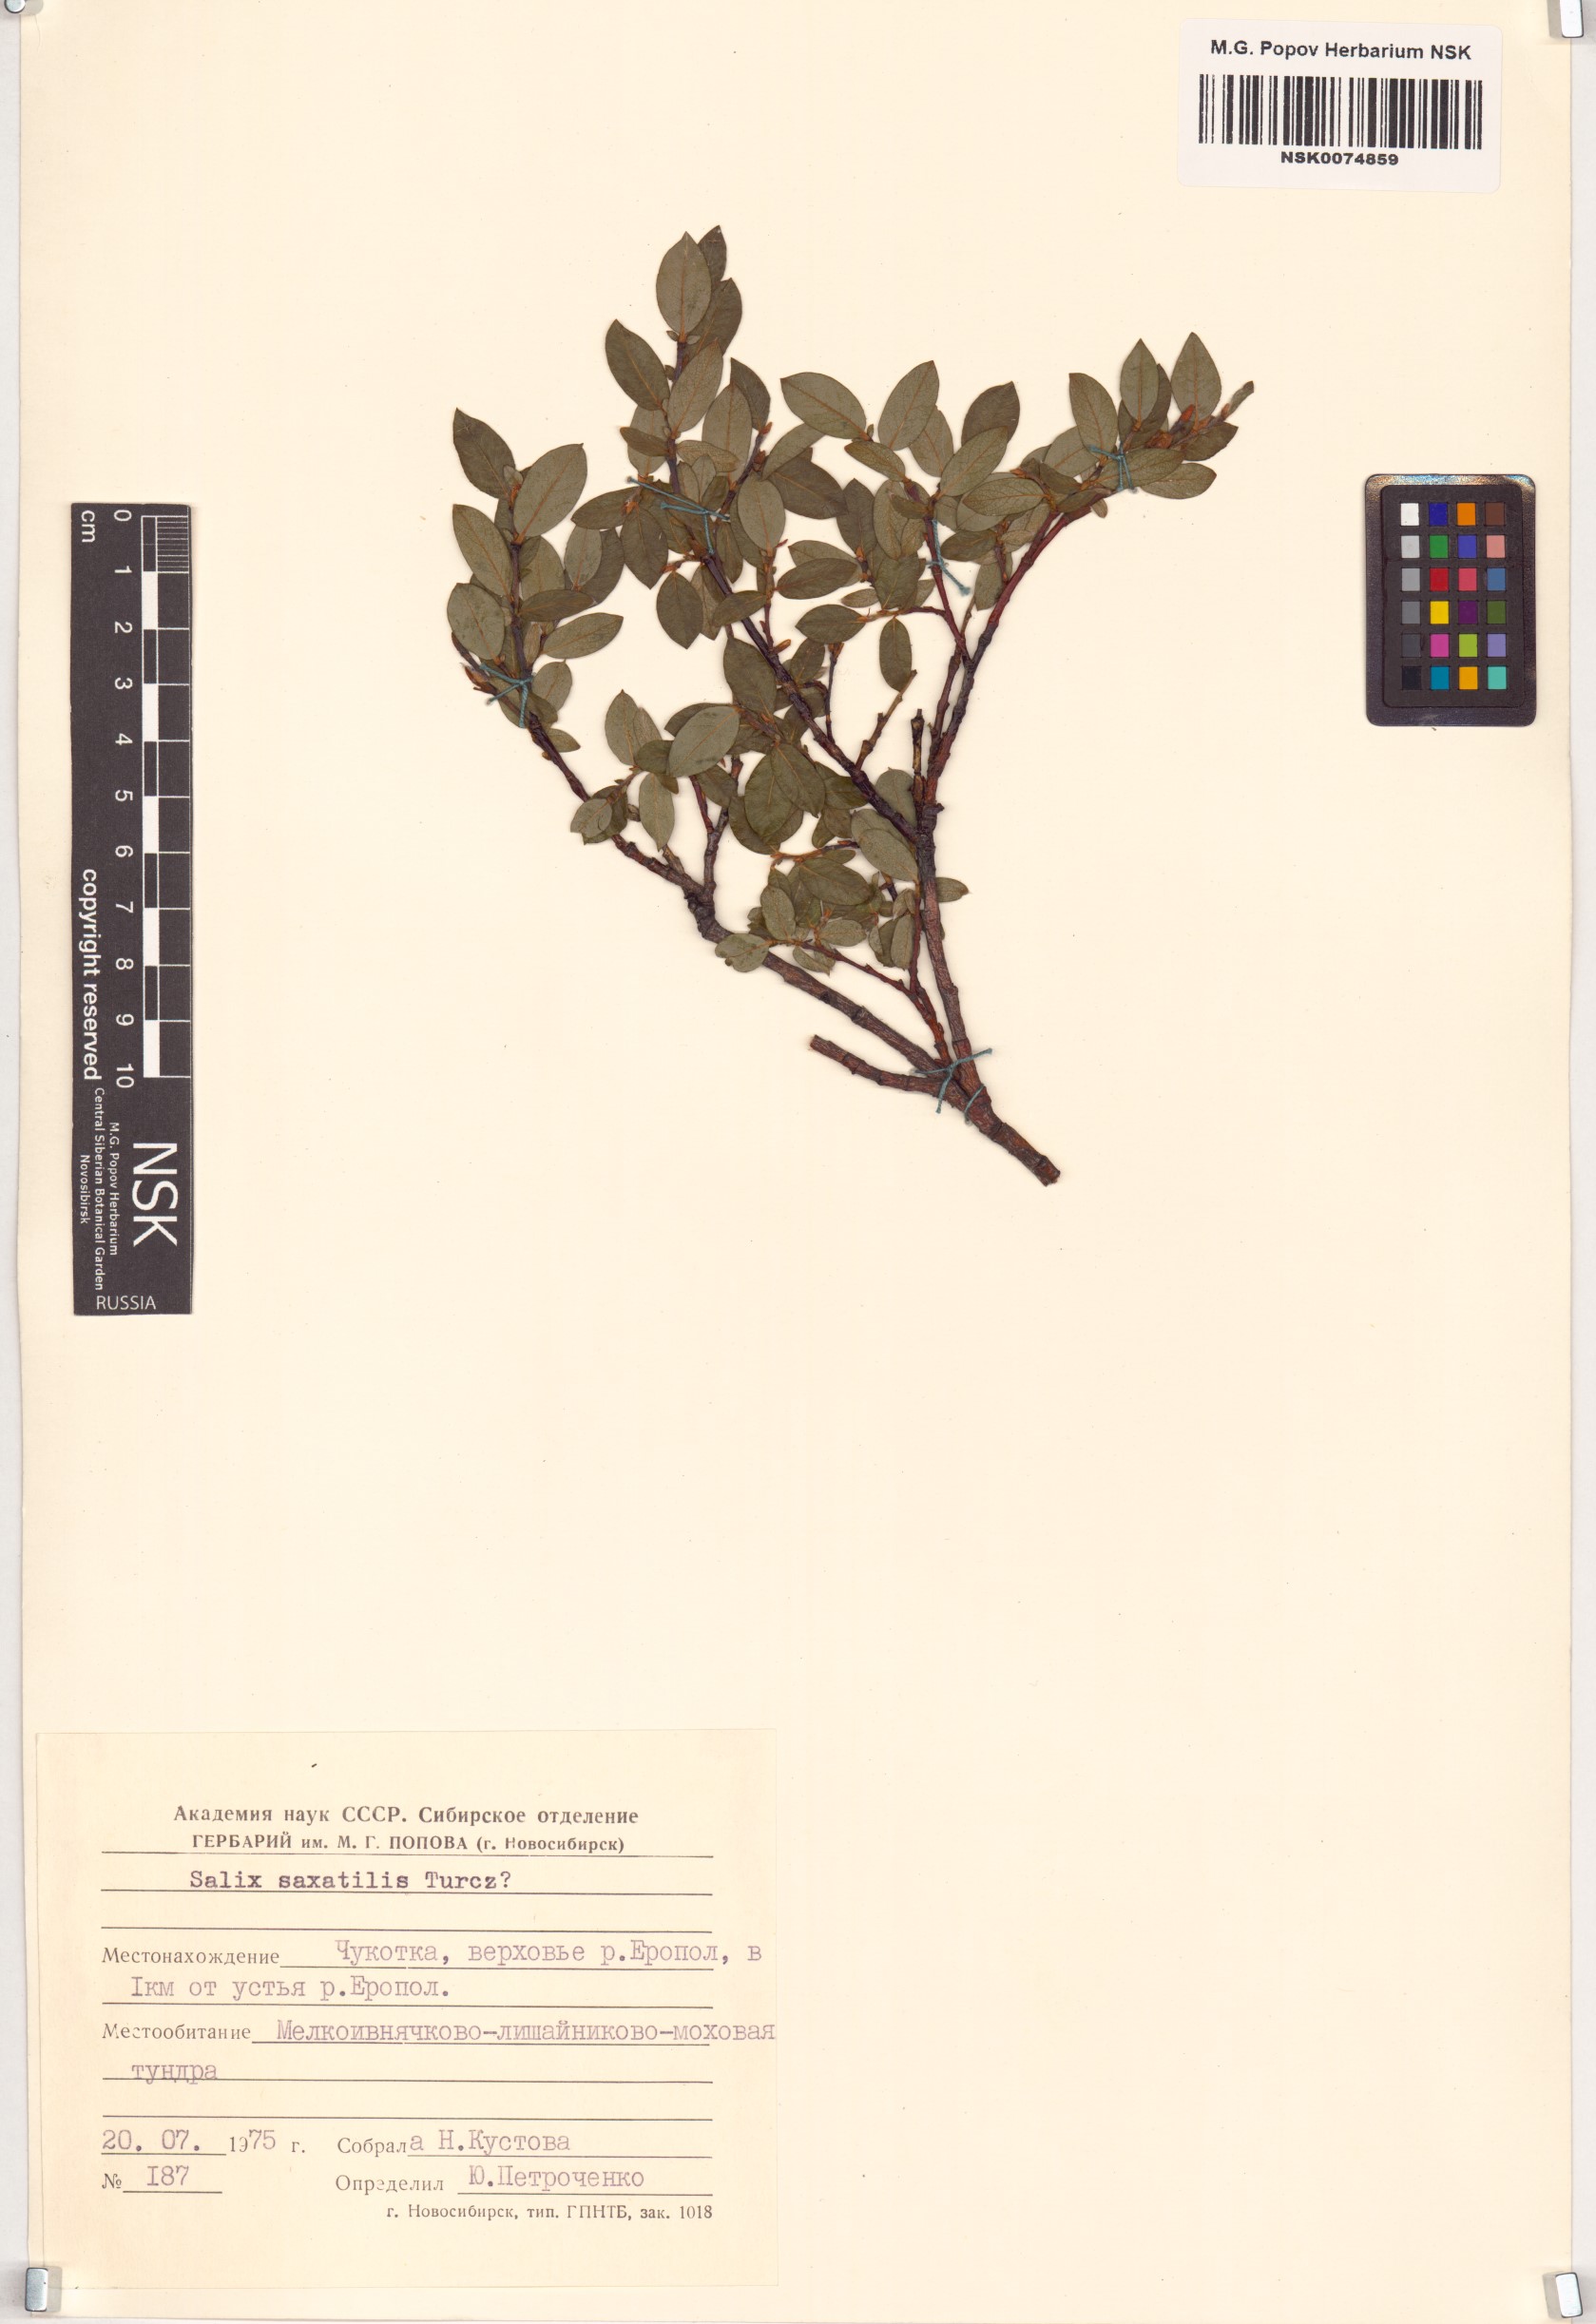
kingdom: Plantae
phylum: Tracheophyta
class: Magnoliopsida
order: Malpighiales
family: Salicaceae
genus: Salix
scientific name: Salix saxatilis
